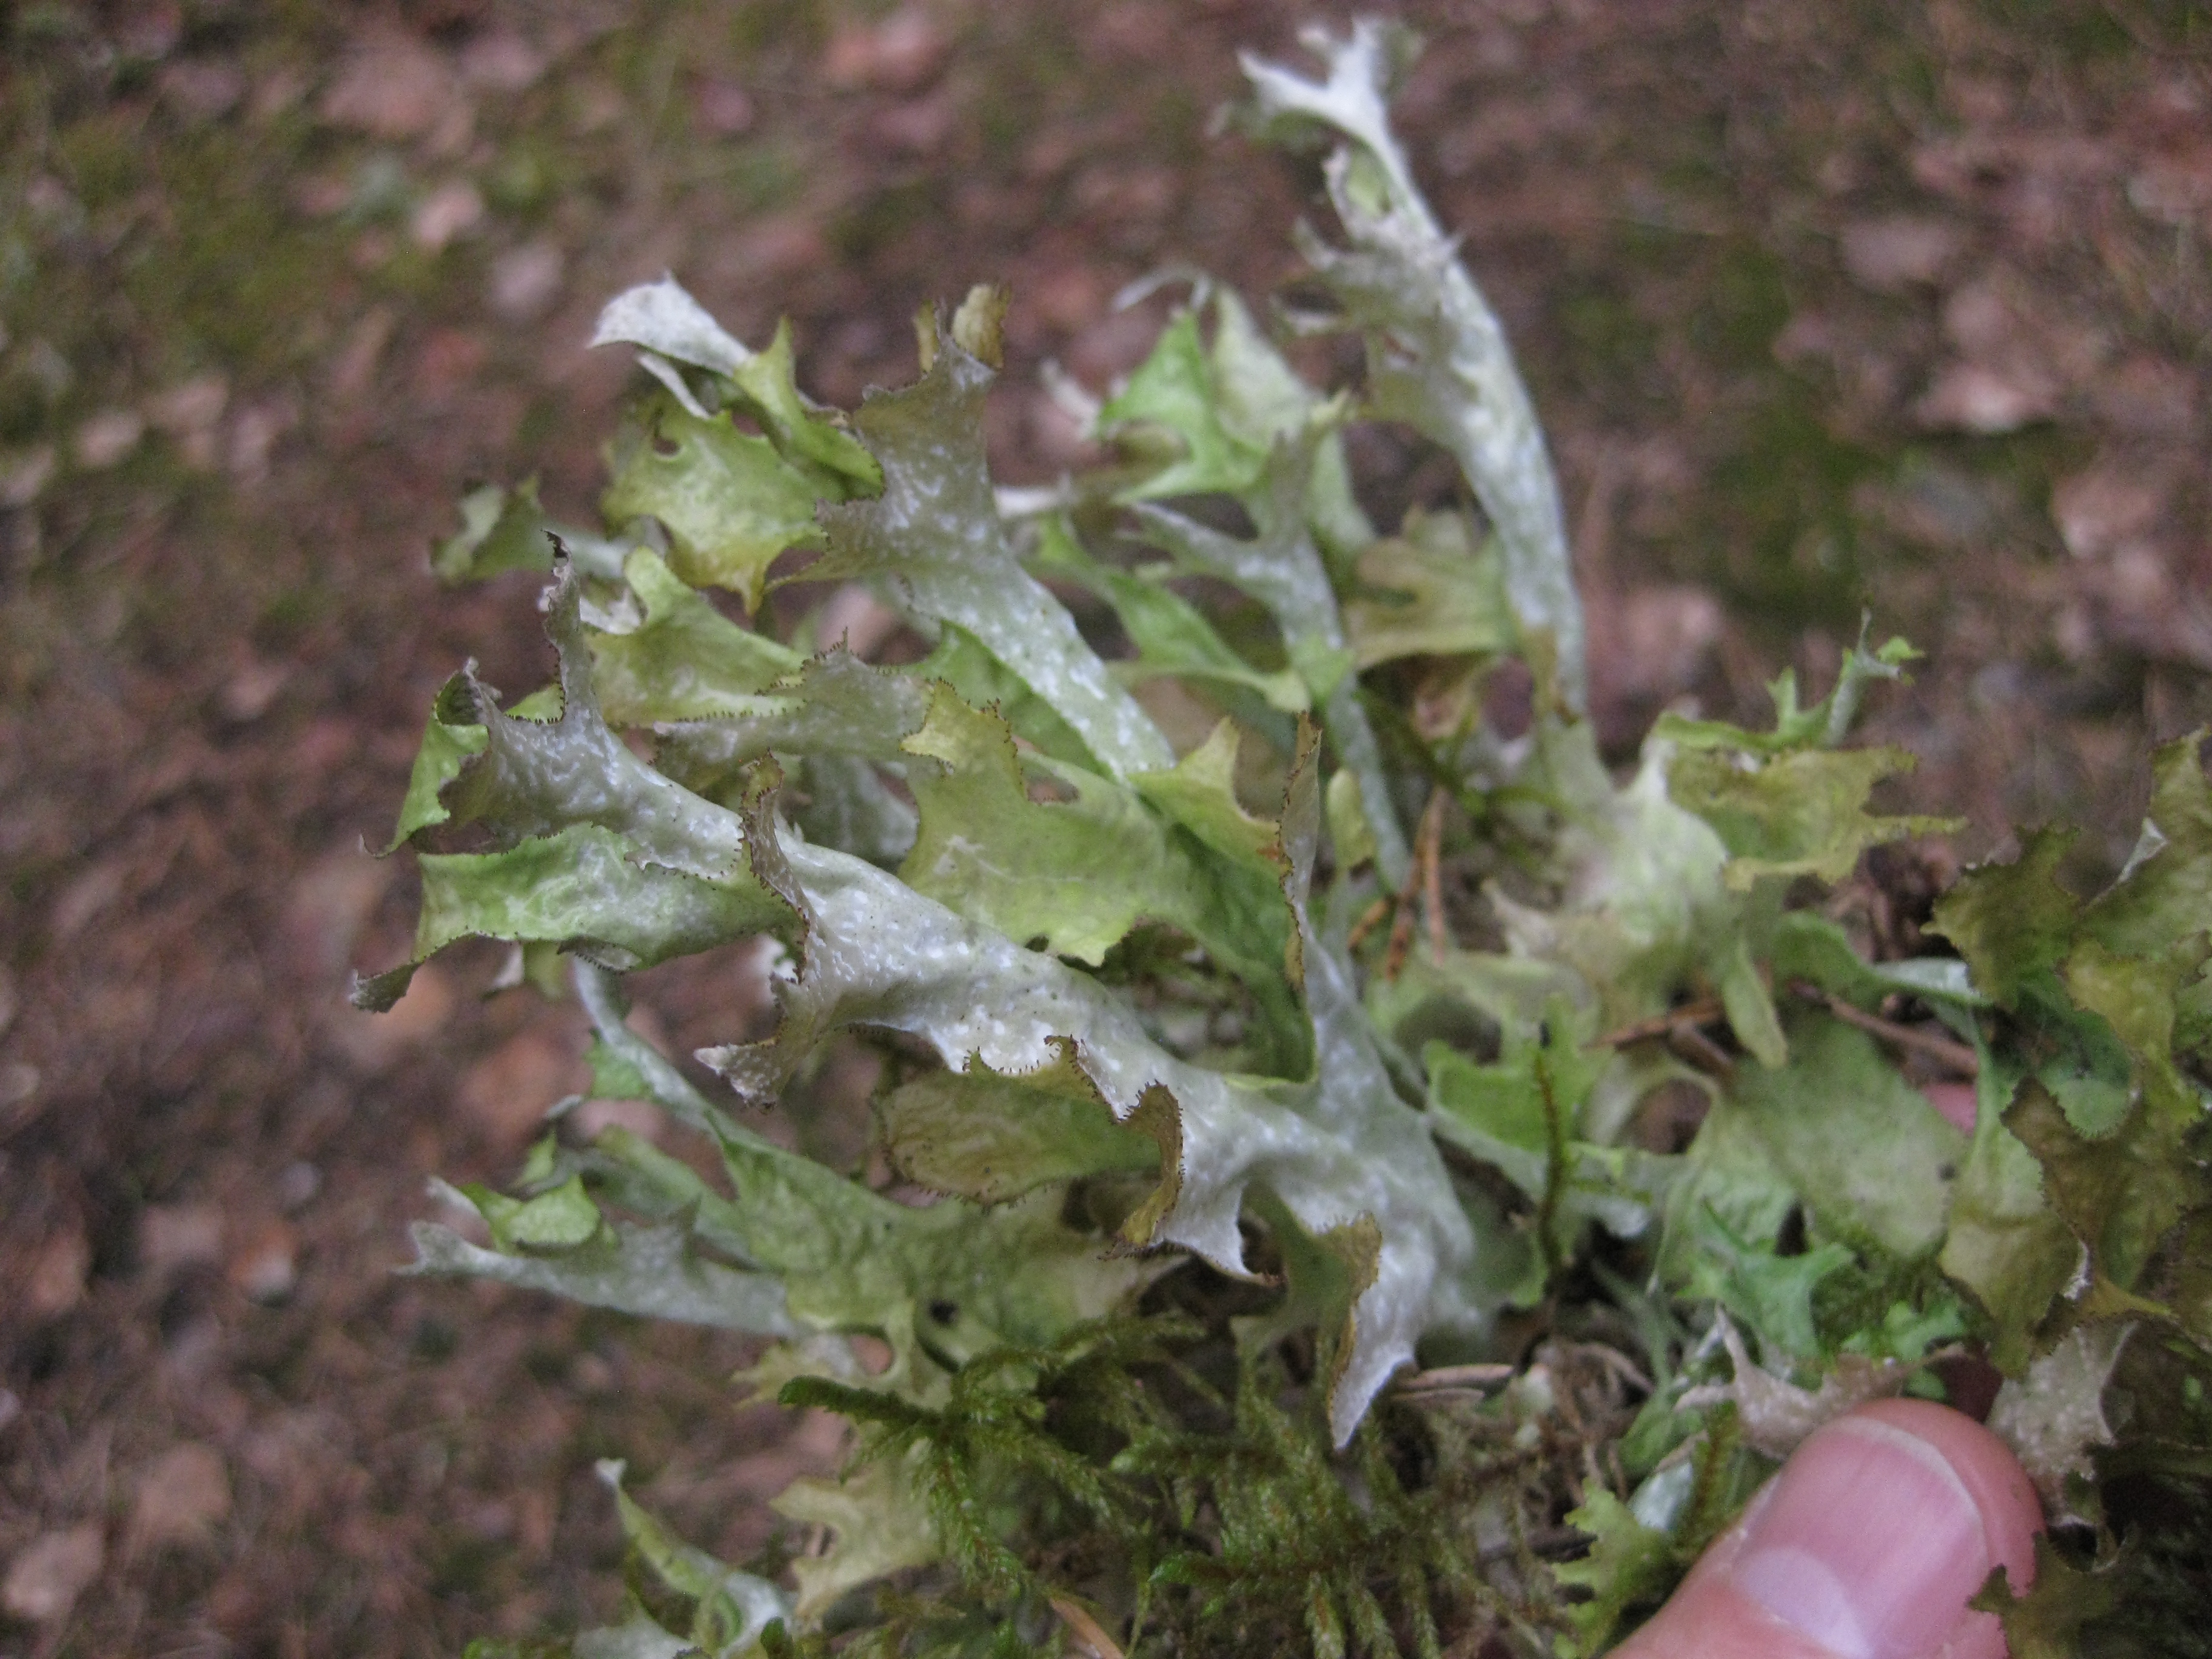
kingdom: Fungi
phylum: Ascomycota
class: Lecanoromycetes
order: Lecanorales
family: Parmeliaceae
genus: Cetraria
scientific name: Cetraria islandica
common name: Iceland lichen
